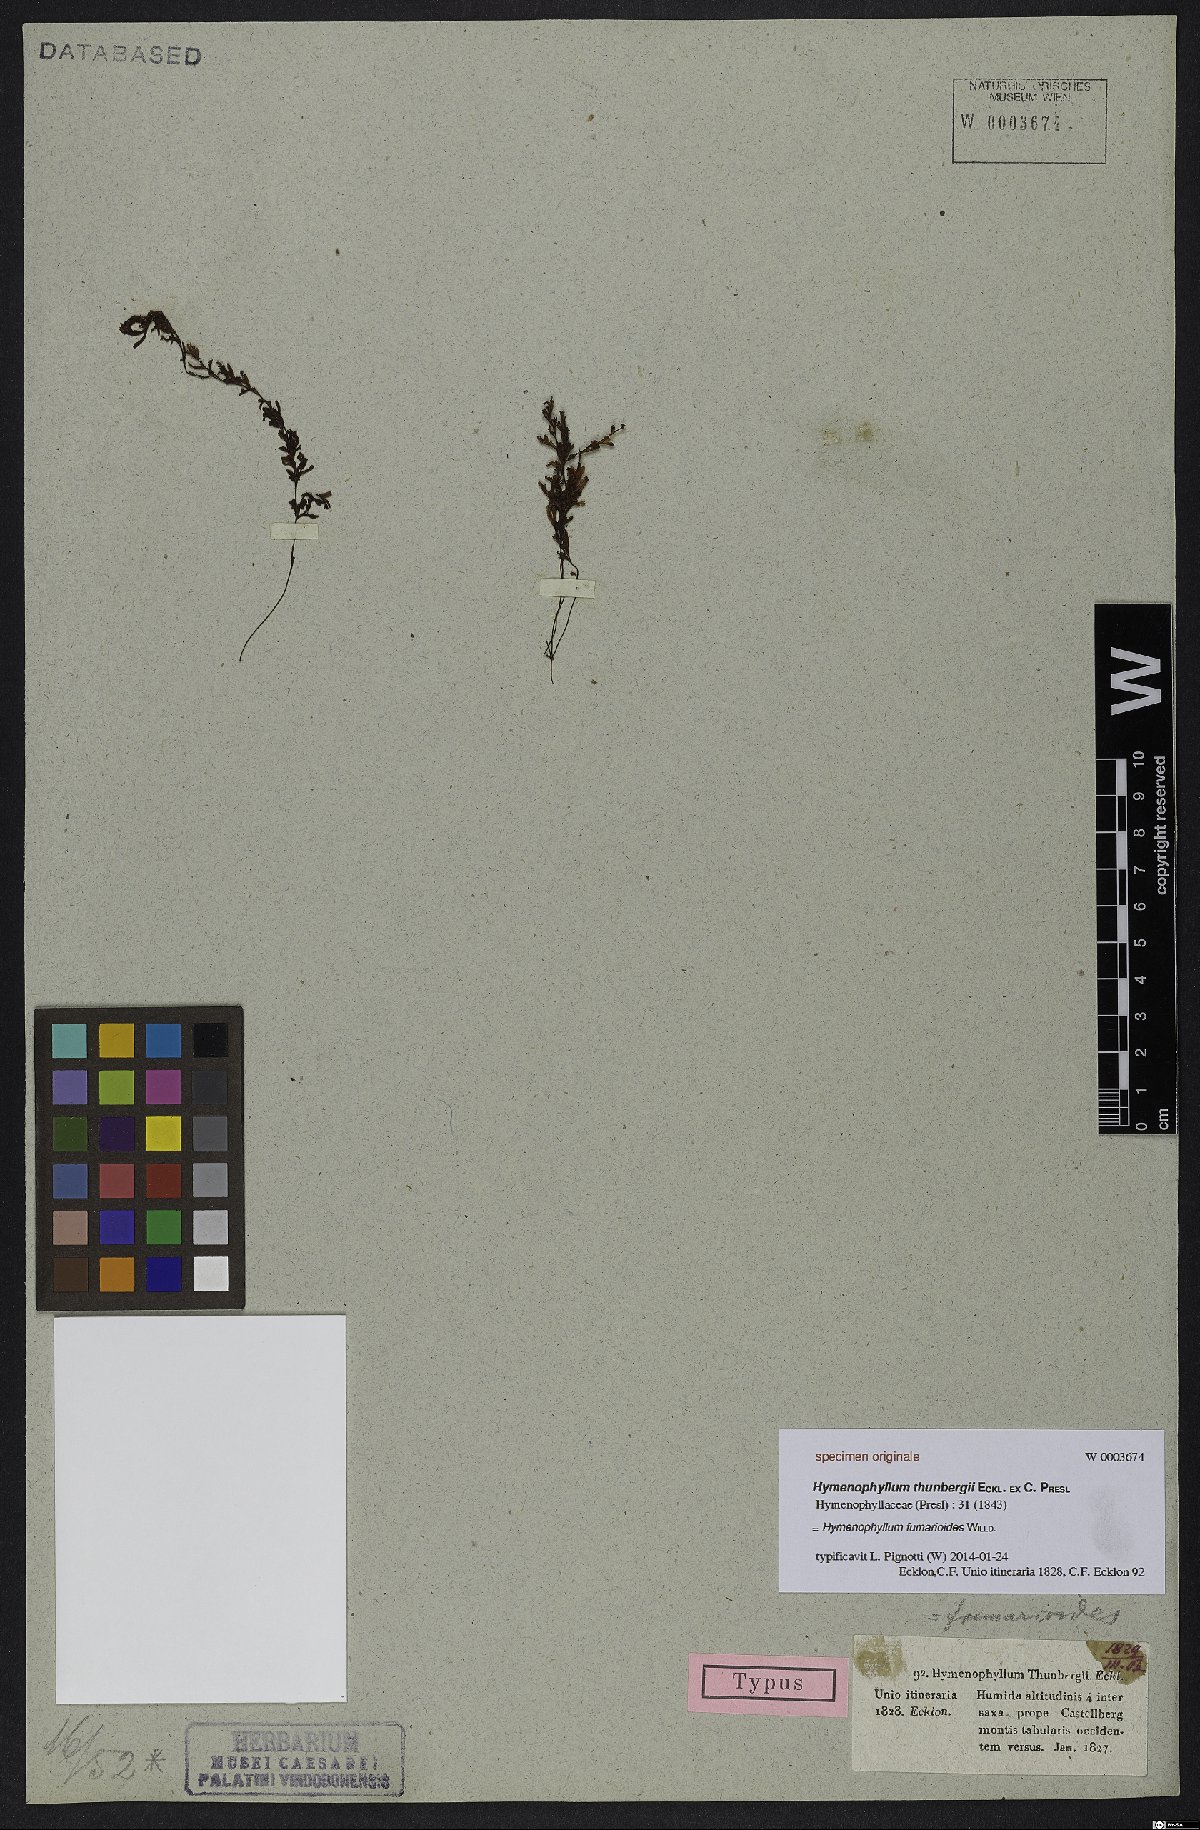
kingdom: Plantae
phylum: Tracheophyta
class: Polypodiopsida
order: Hymenophyllales
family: Hymenophyllaceae
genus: Hymenophyllum
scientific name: Hymenophyllum fumarioides
